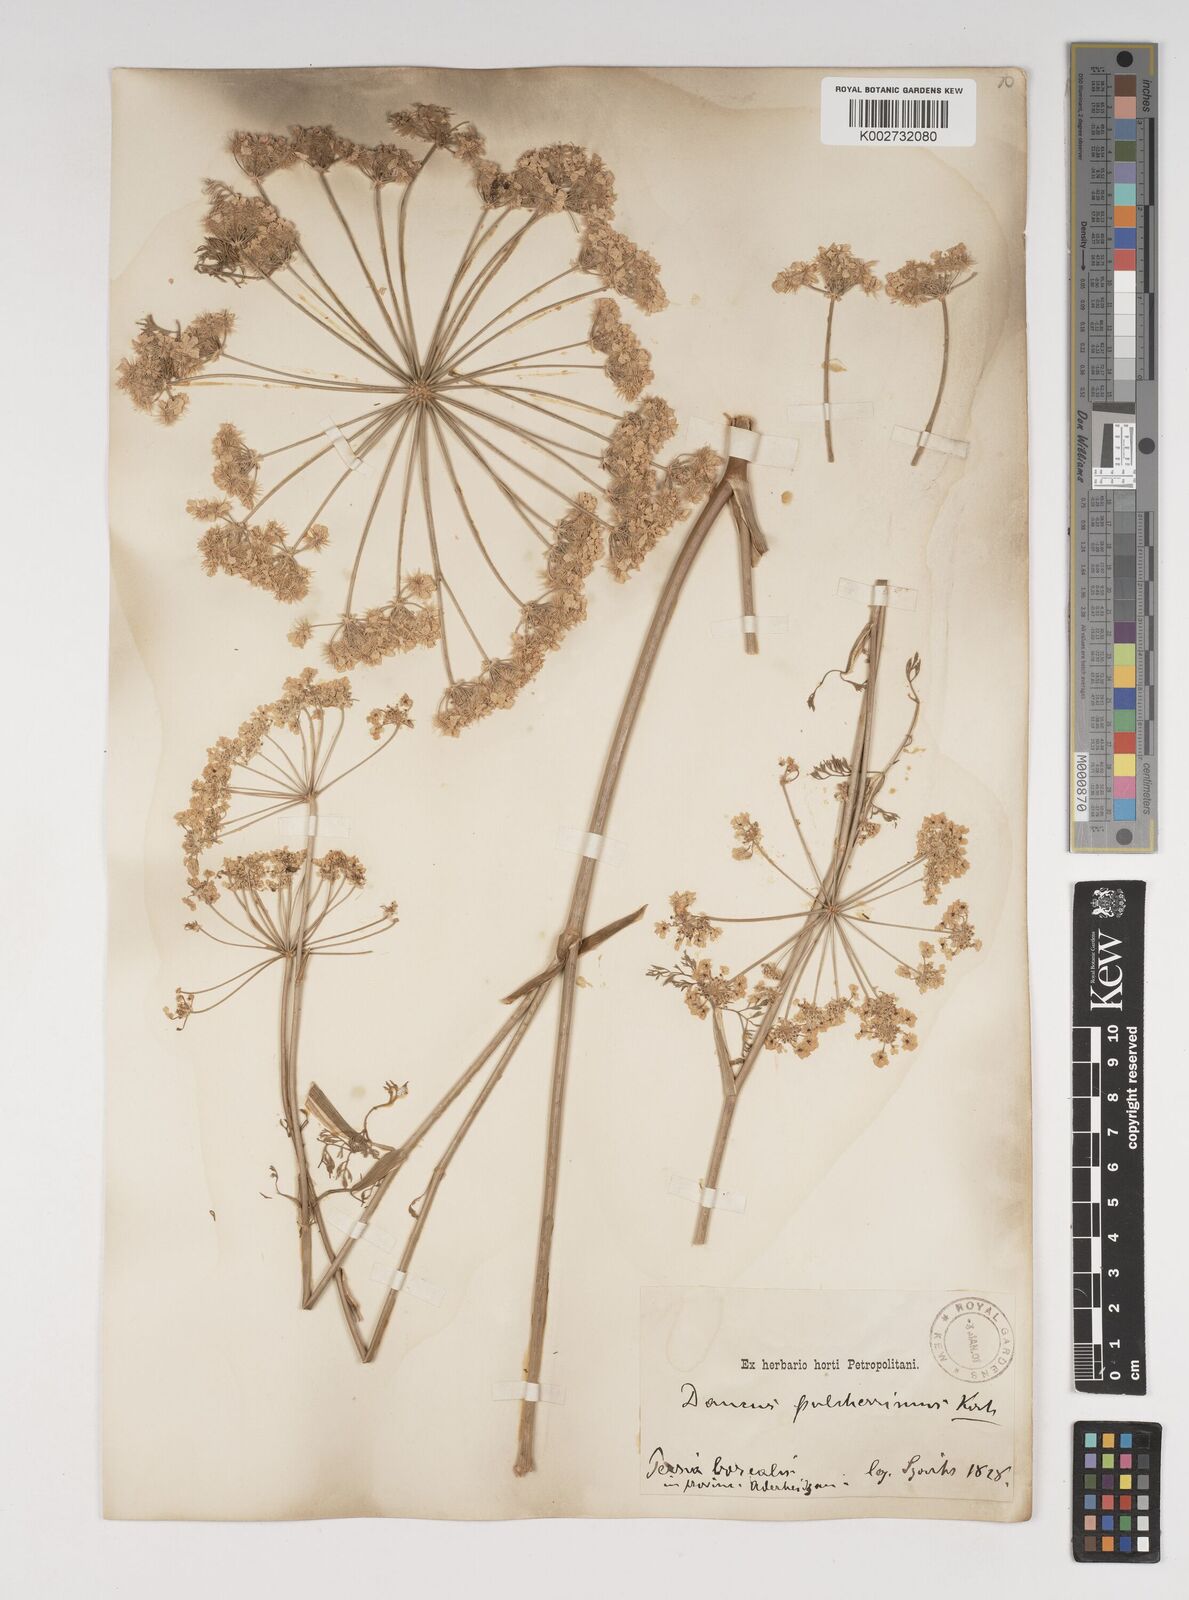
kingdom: Plantae
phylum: Tracheophyta
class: Magnoliopsida
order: Apiales
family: Apiaceae
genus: Astrodaucus
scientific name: Astrodaucus
